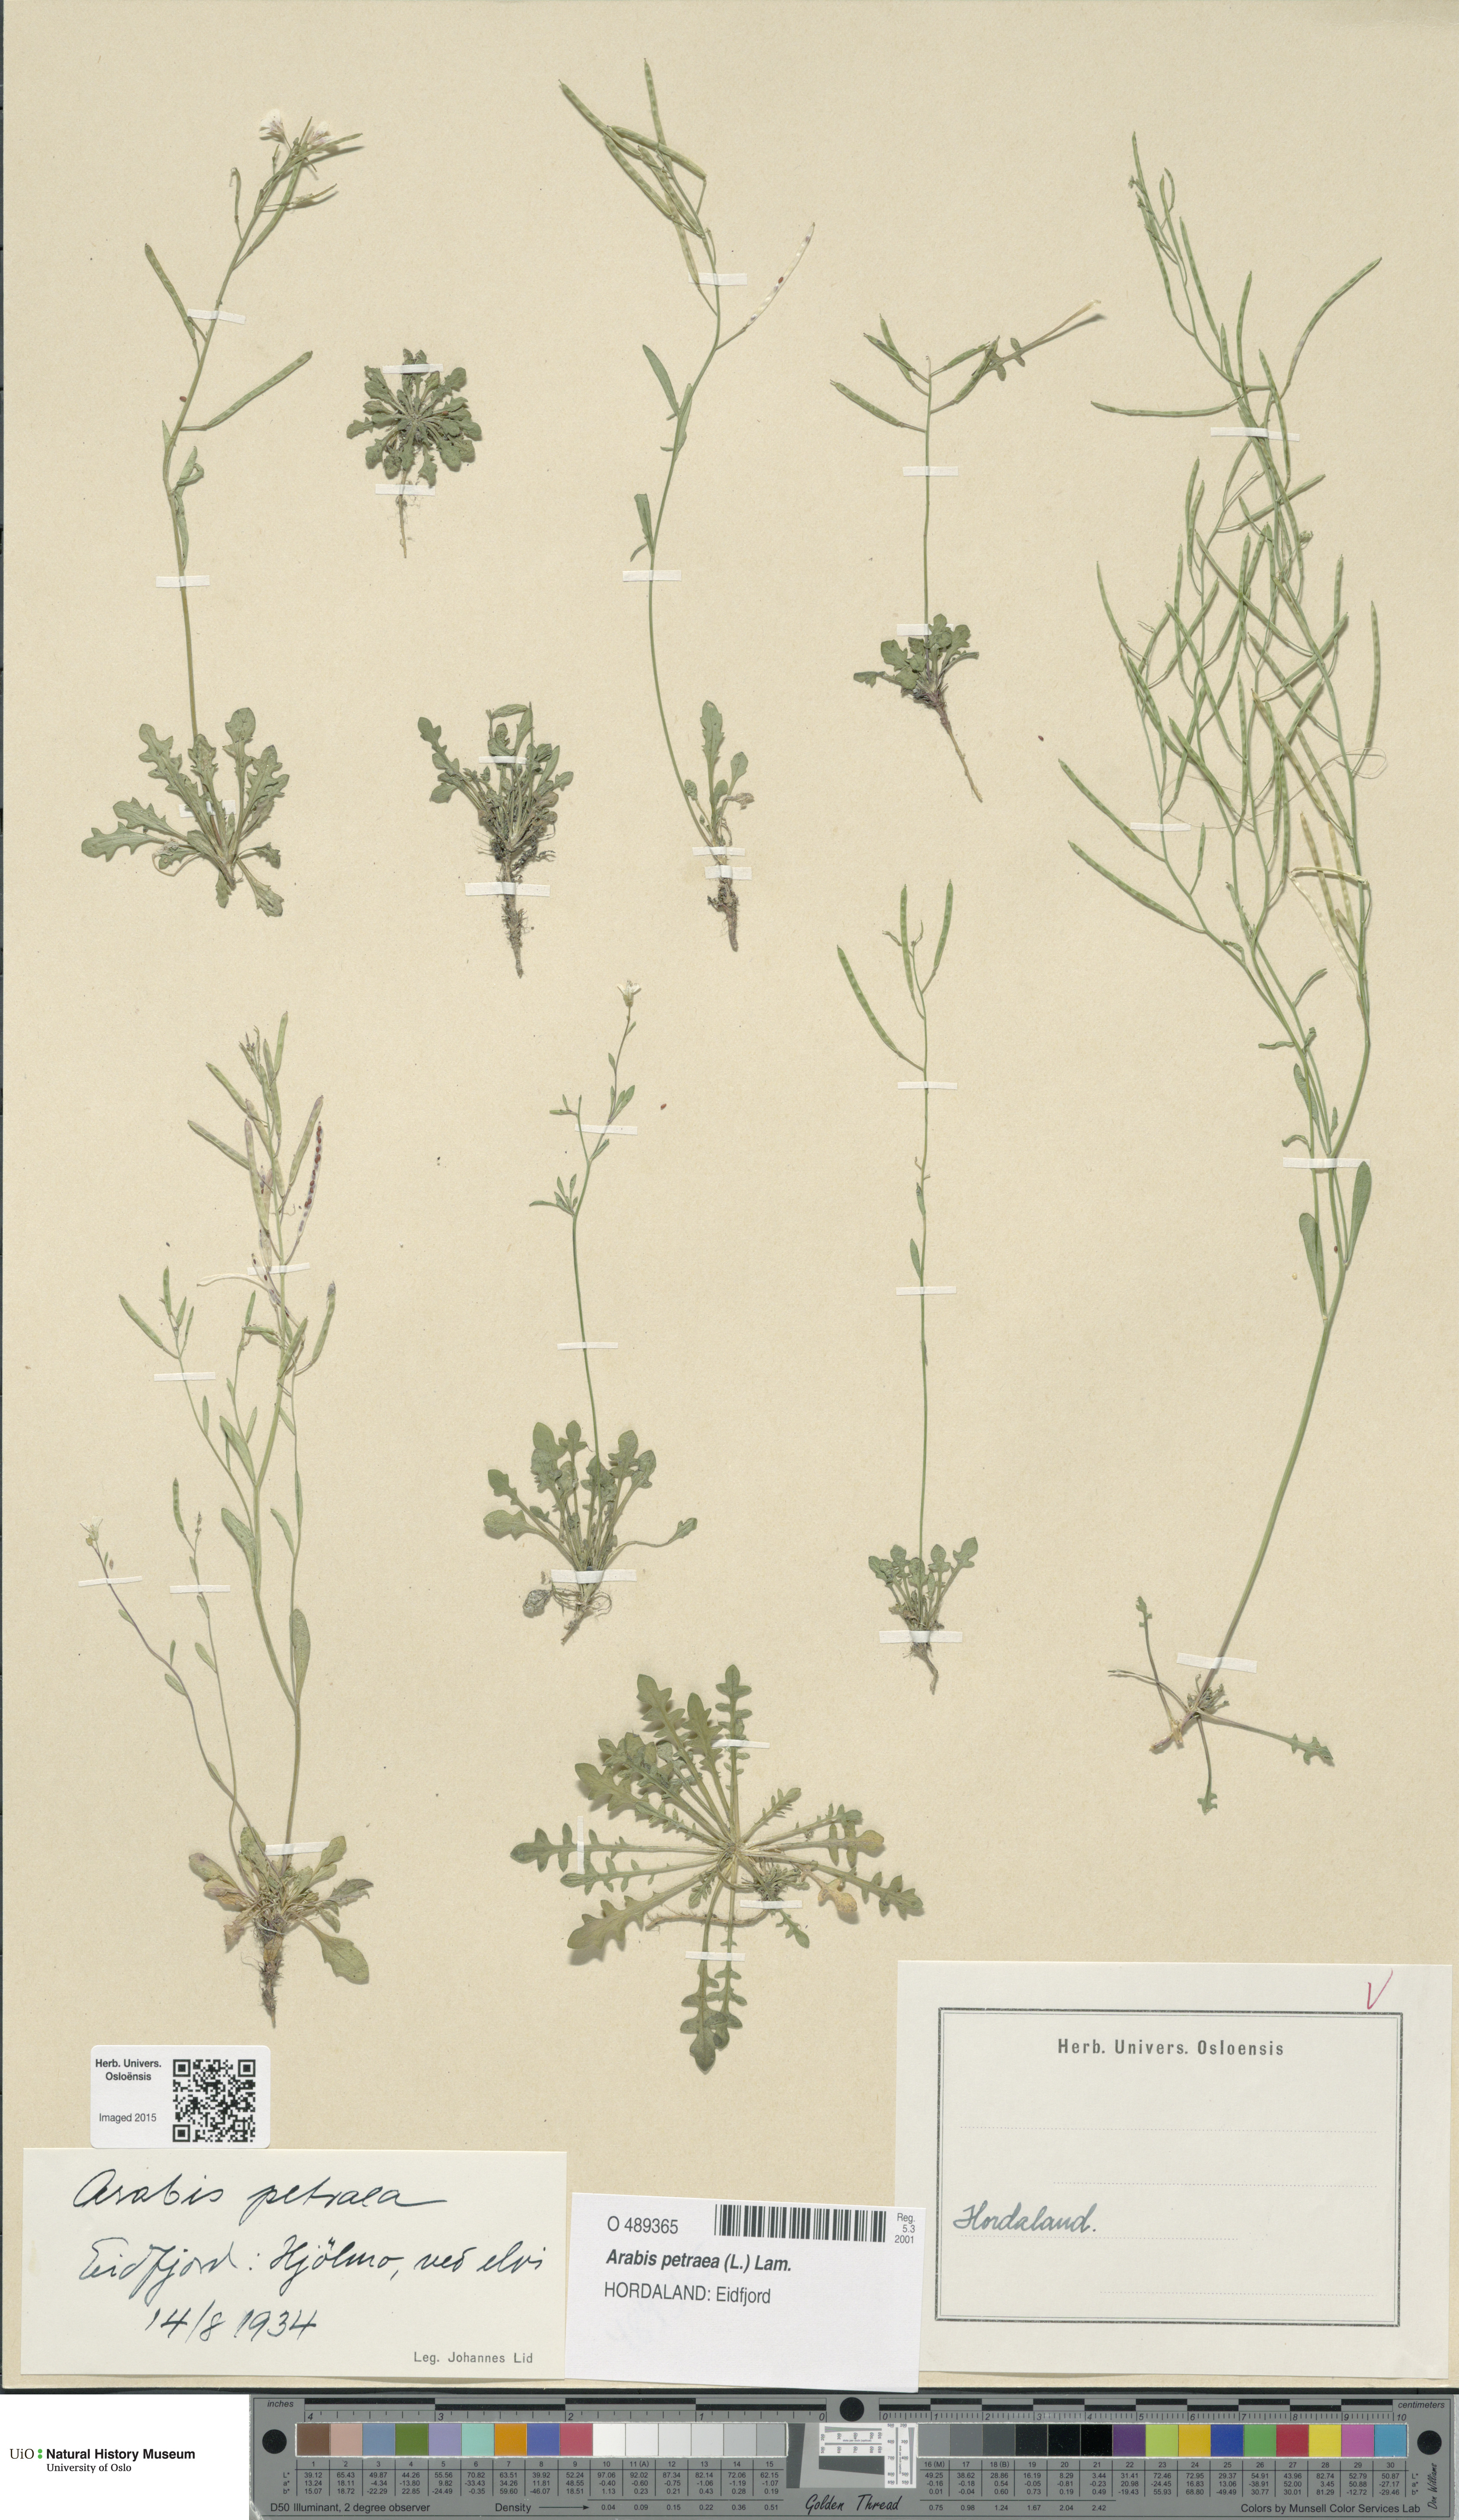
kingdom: Plantae
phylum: Tracheophyta
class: Magnoliopsida
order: Brassicales
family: Brassicaceae
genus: Arabidopsis
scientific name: Arabidopsis petraea
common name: Northern rock-cress
